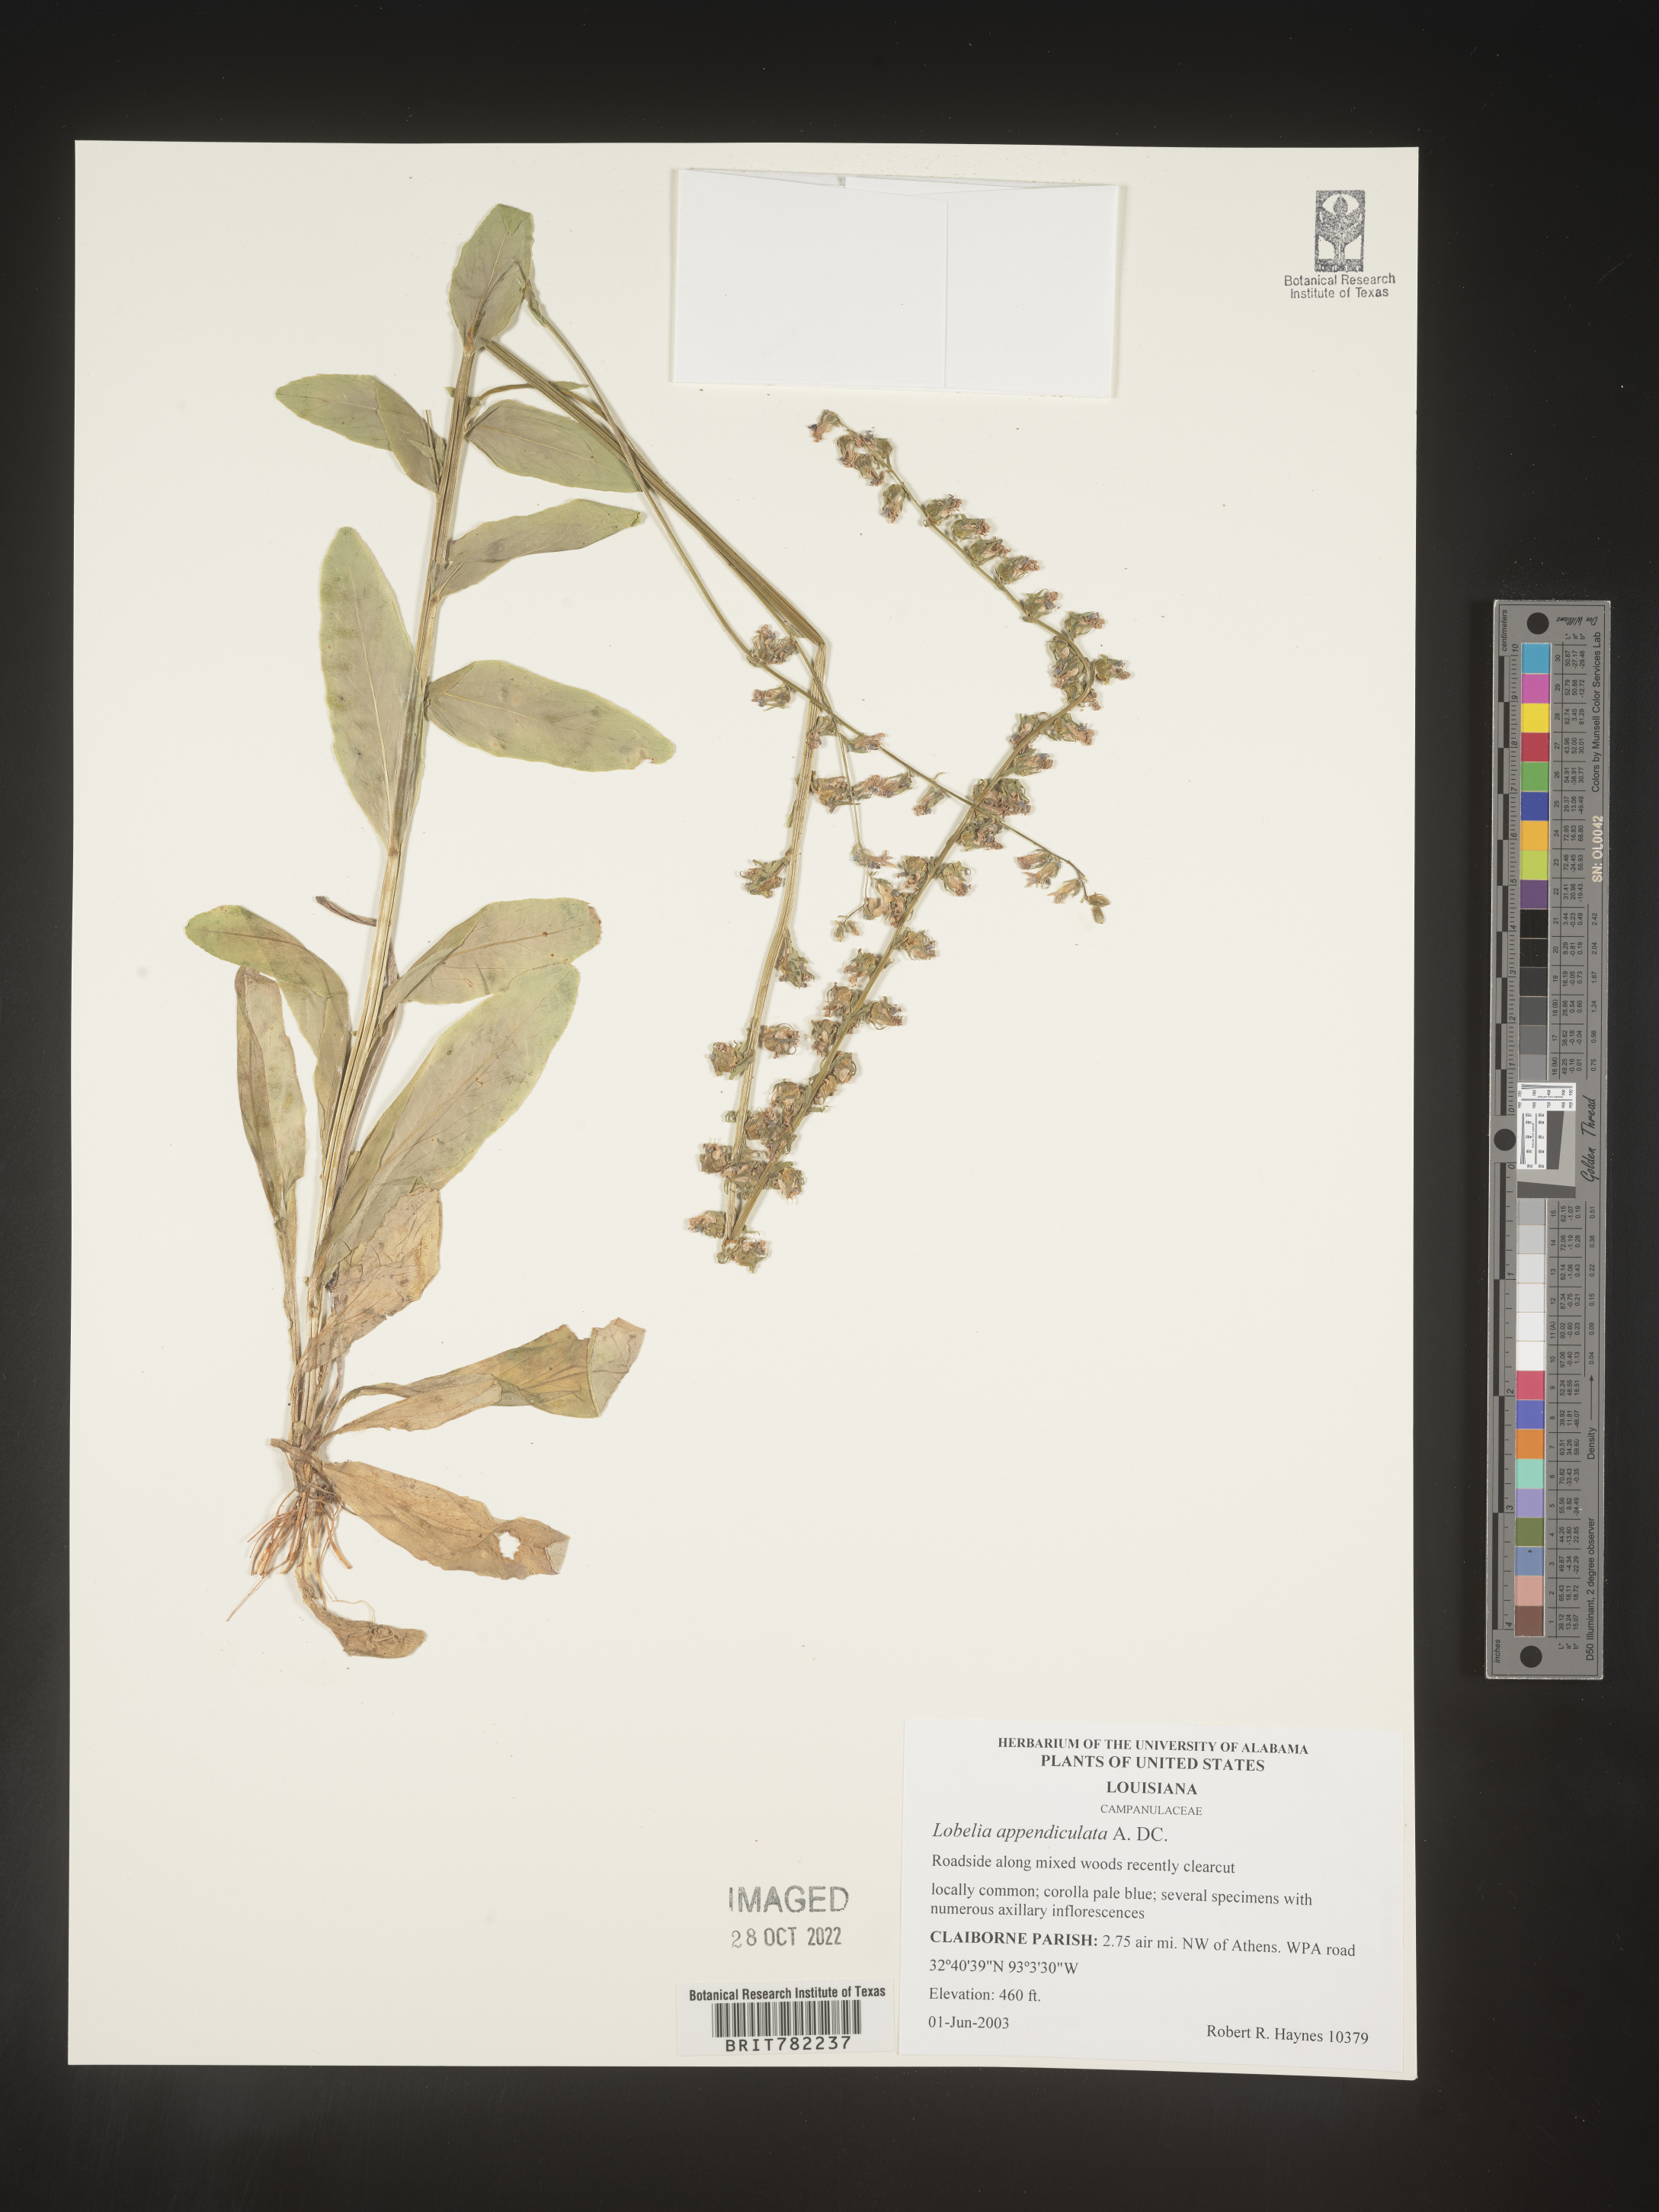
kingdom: Plantae
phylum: Tracheophyta
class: Magnoliopsida
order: Asterales
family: Campanulaceae
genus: Lobelia
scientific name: Lobelia appendiculata
